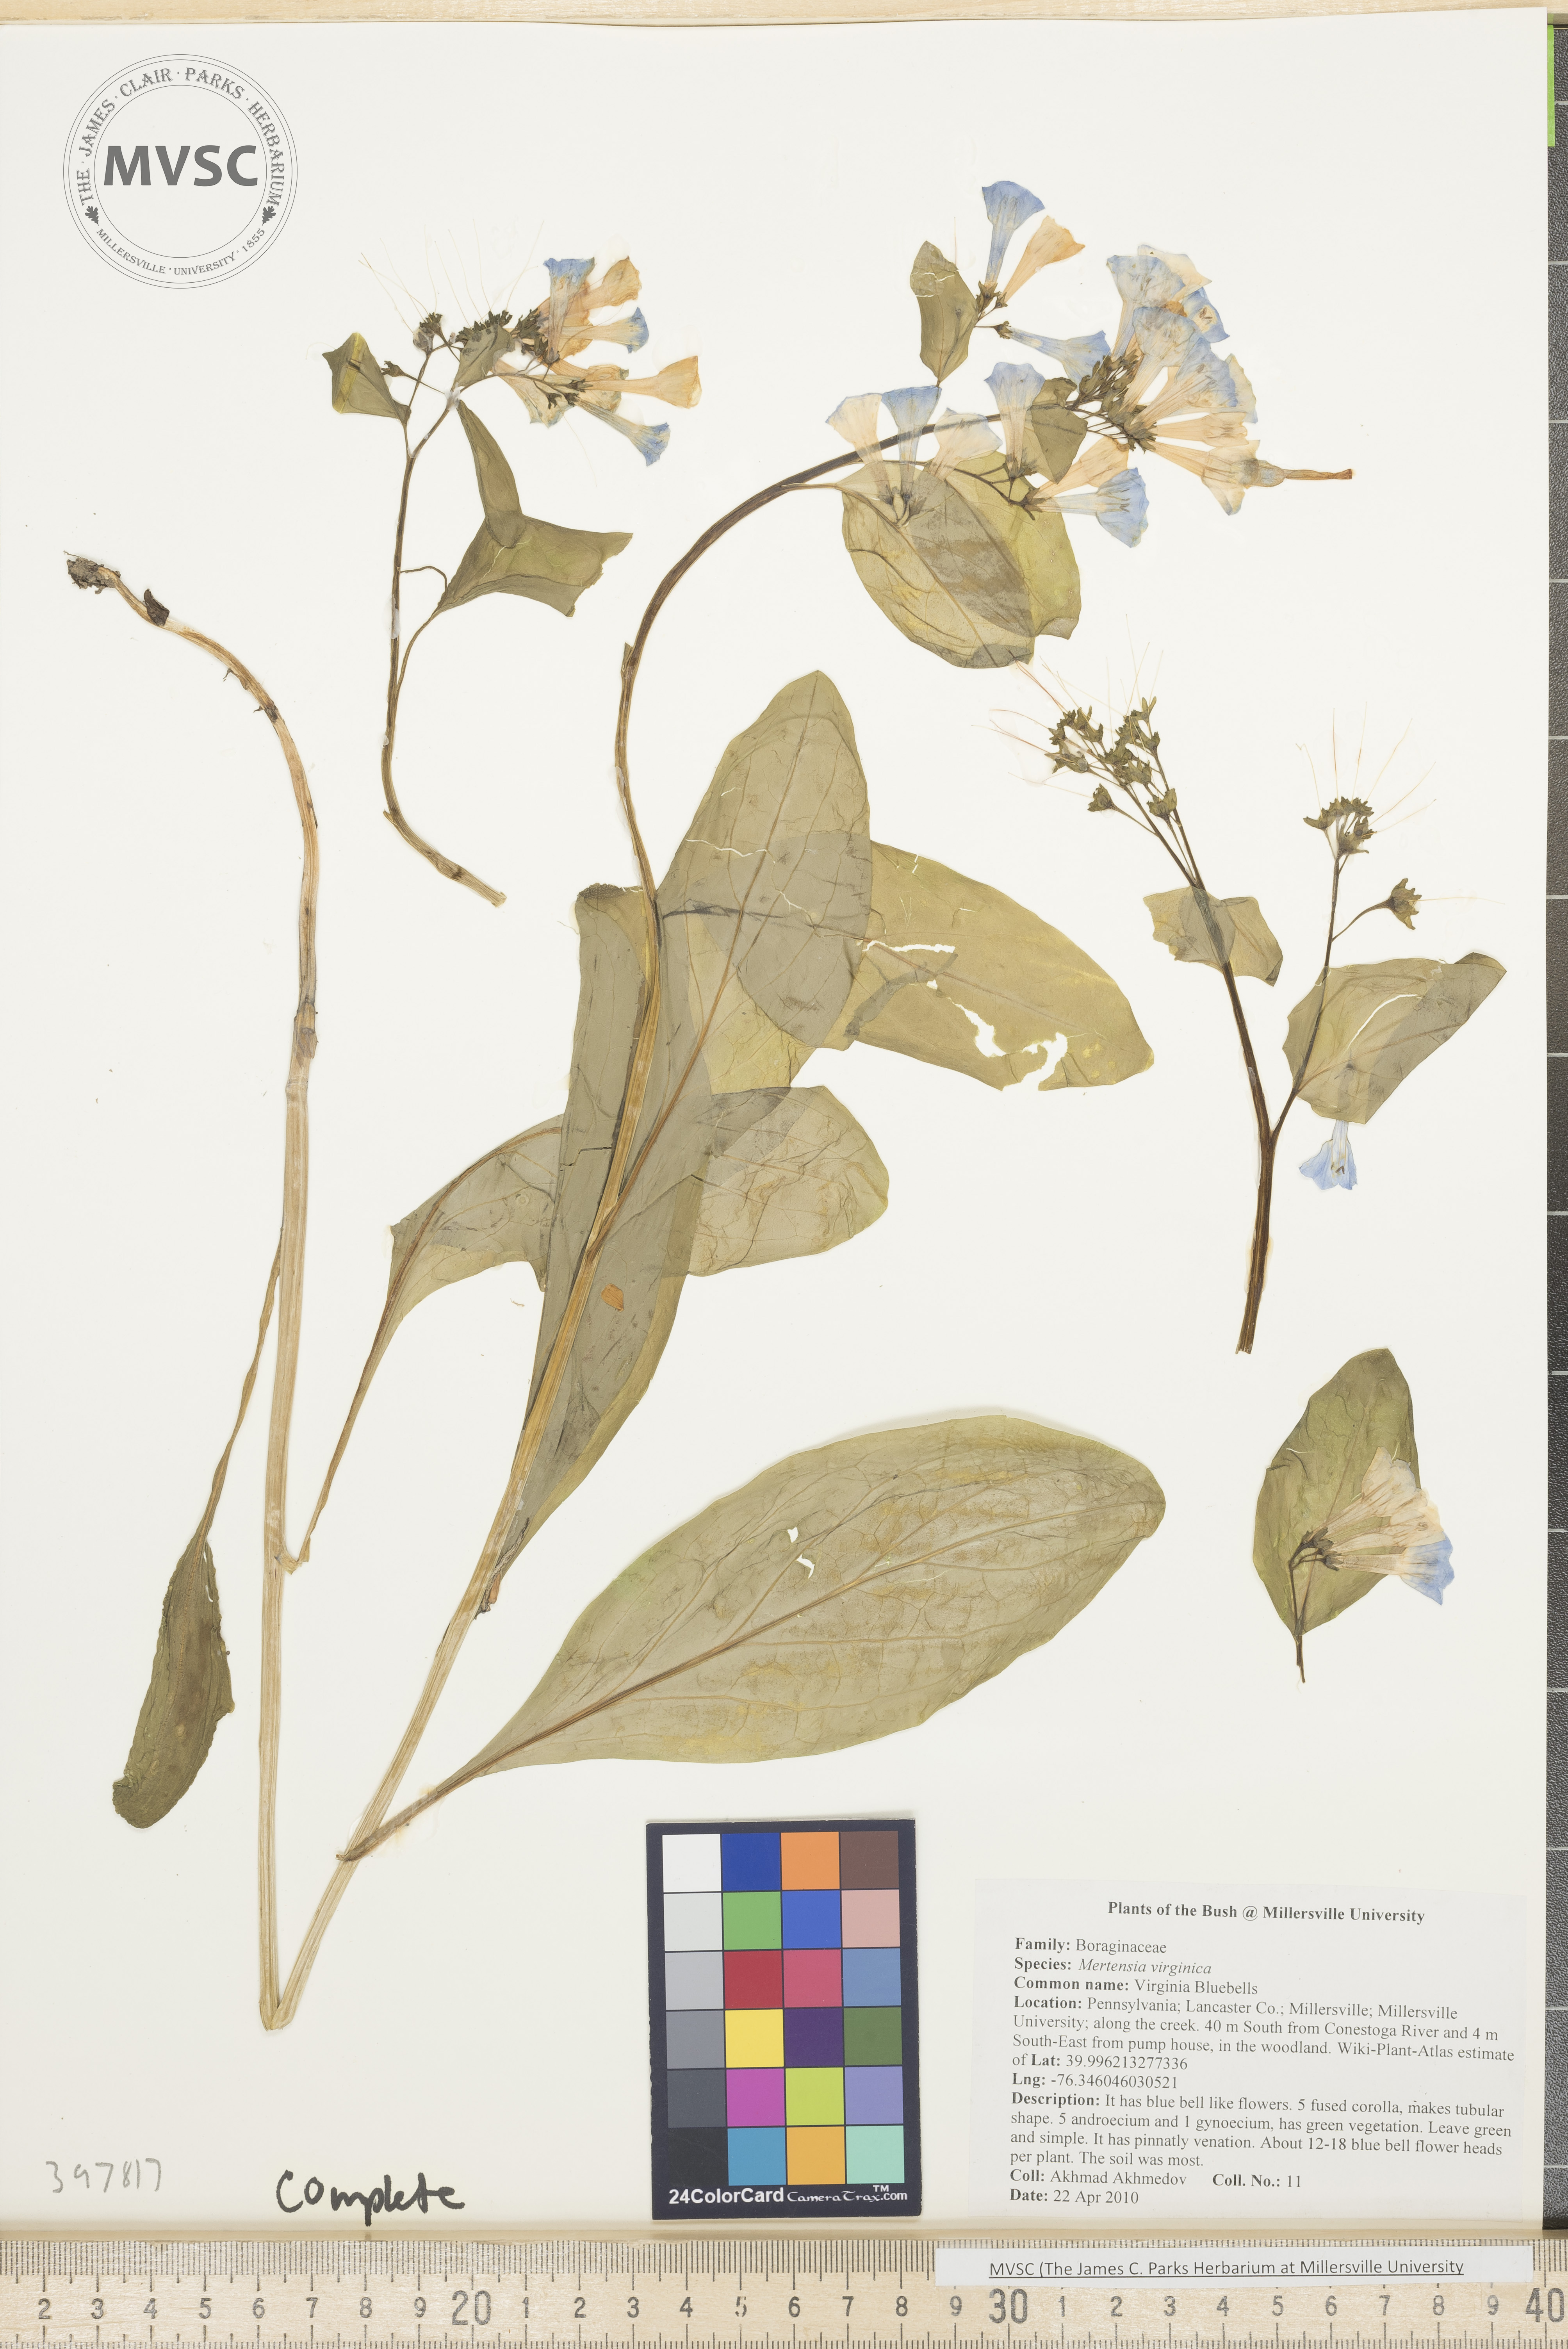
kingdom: Plantae
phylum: Tracheophyta
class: Magnoliopsida
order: Boraginales
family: Boraginaceae
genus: Mertensia
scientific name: Mertensia virginica
